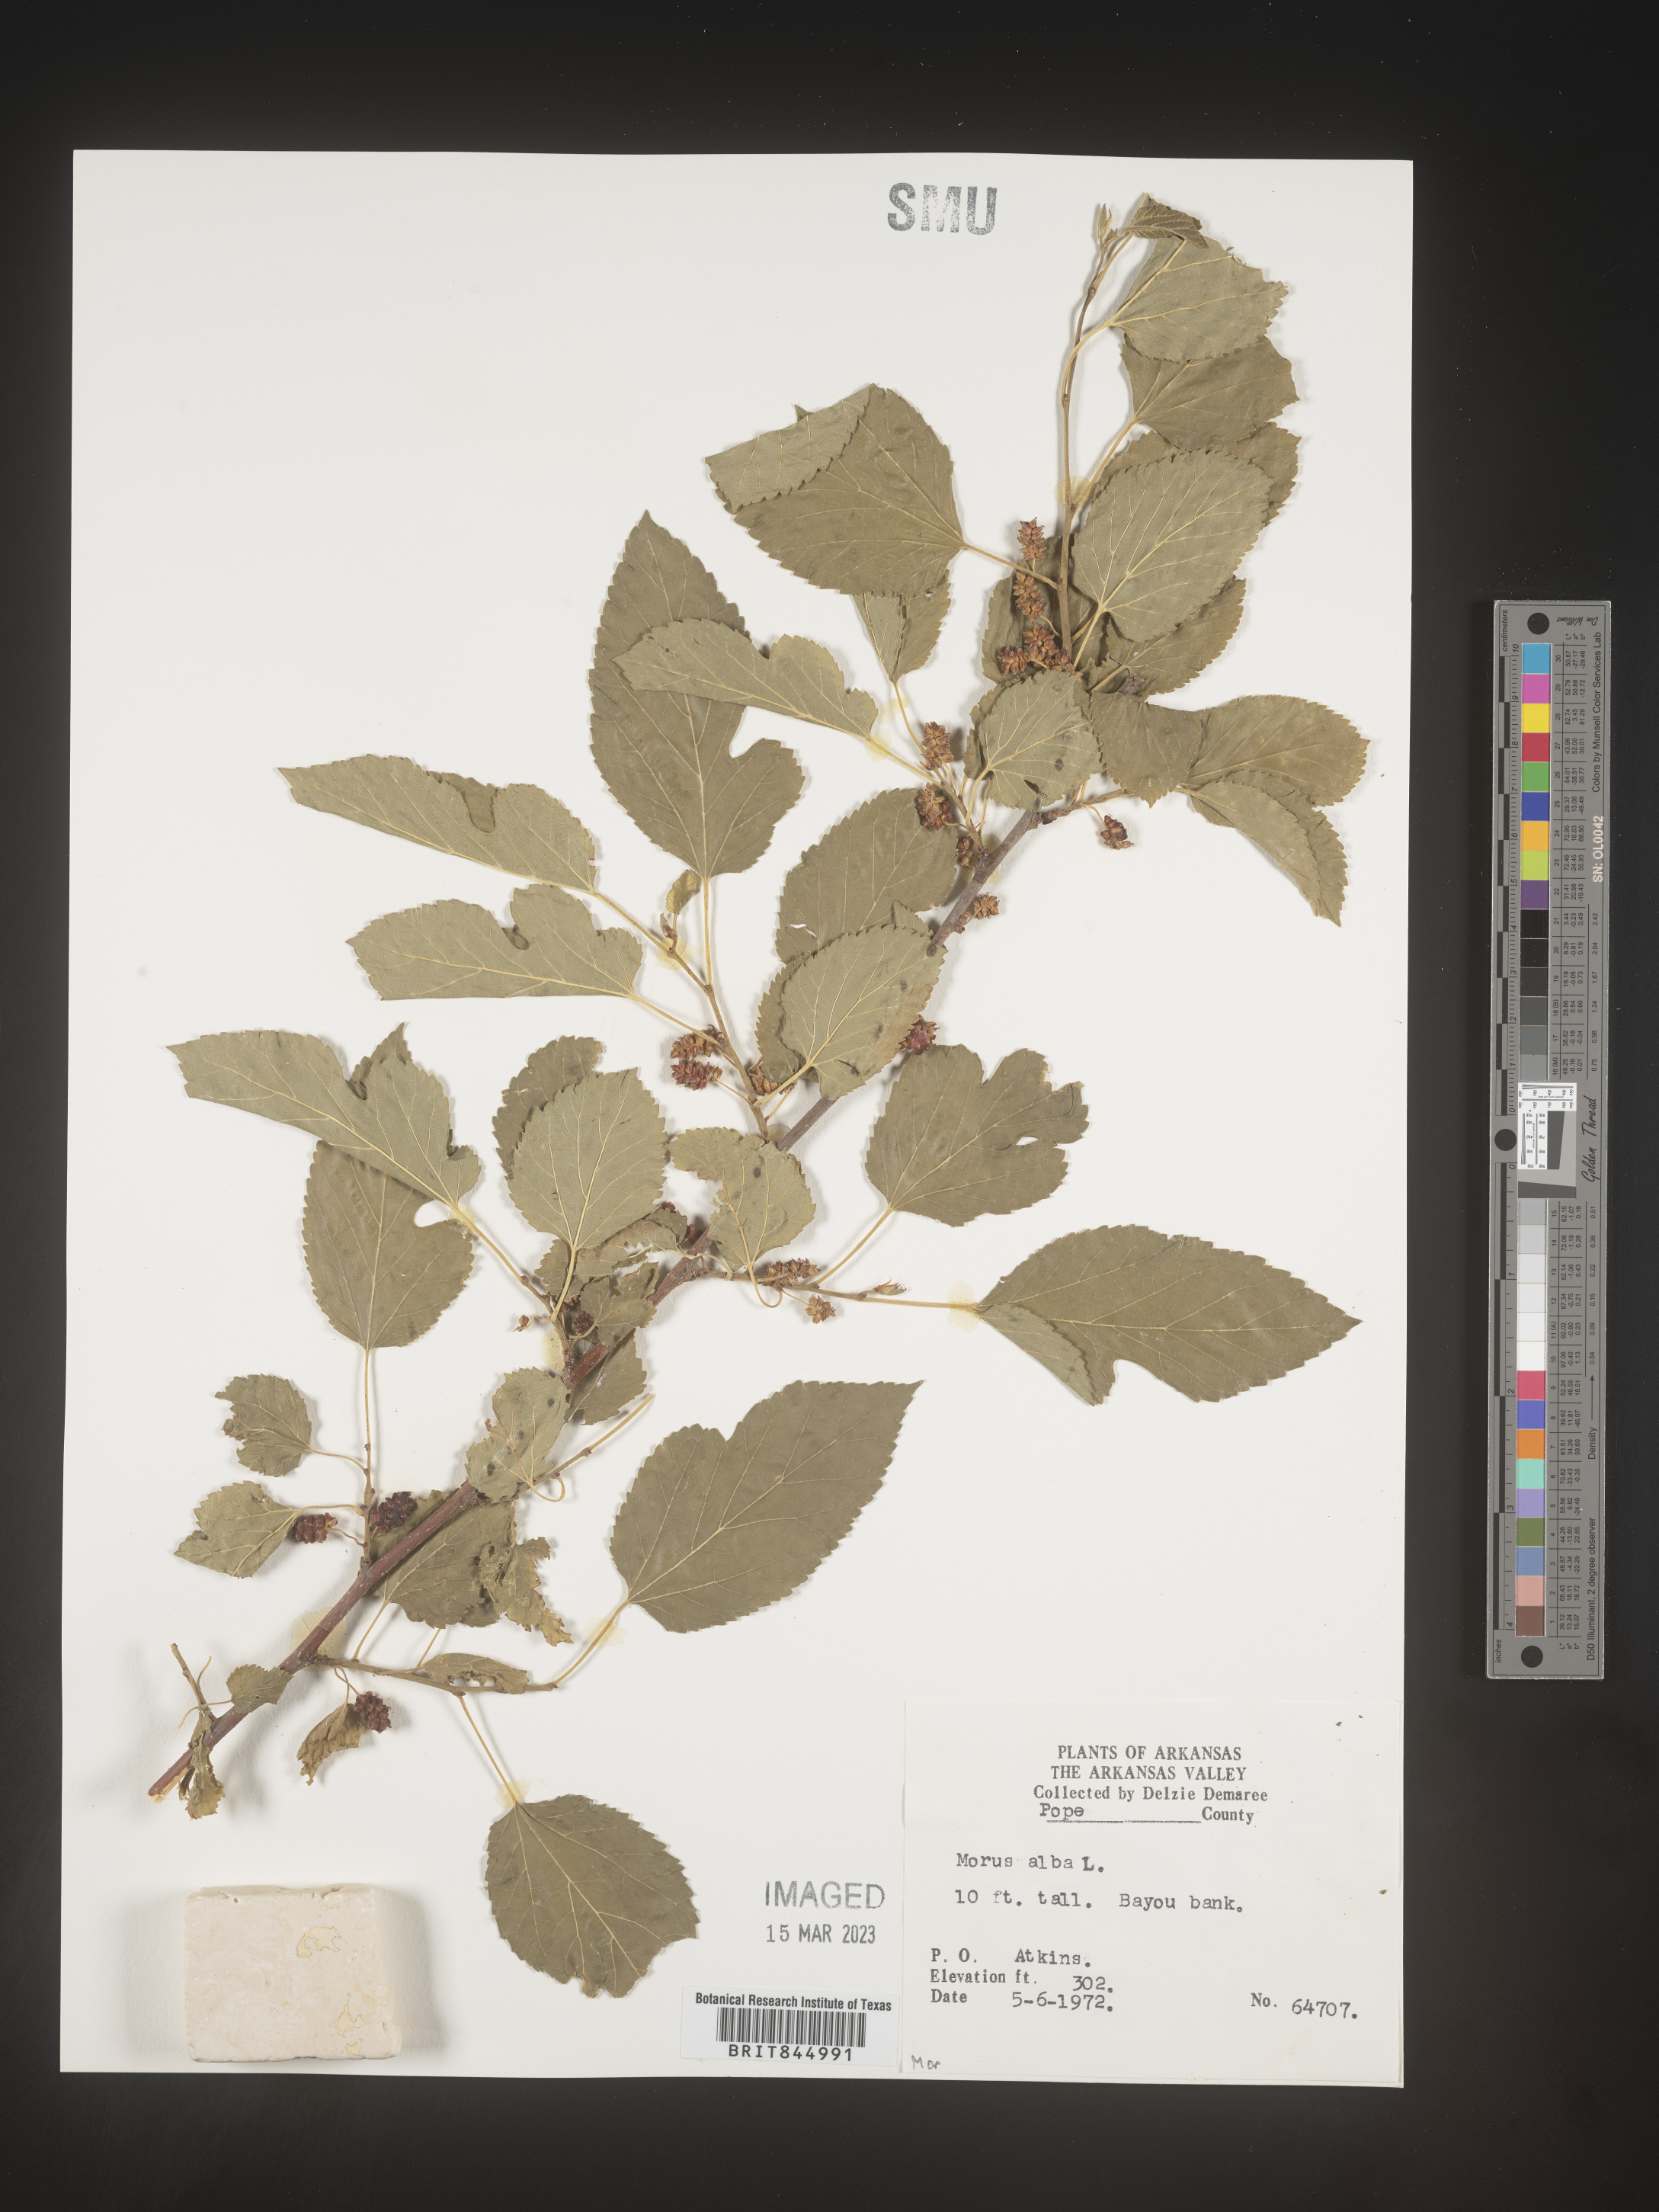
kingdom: Plantae
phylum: Tracheophyta
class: Magnoliopsida
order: Rosales
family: Moraceae
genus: Morus
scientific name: Morus alba
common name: White mulberry
